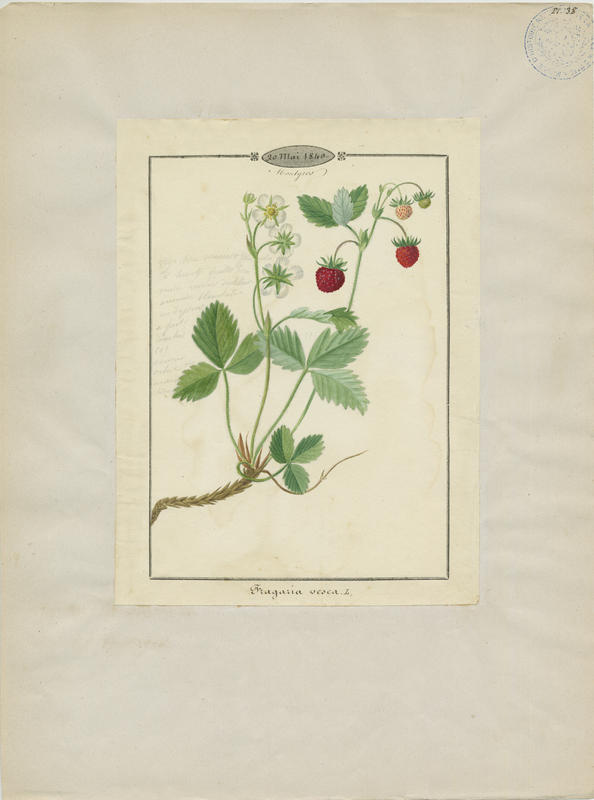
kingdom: Plantae
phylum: Tracheophyta
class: Magnoliopsida
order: Rosales
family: Rosaceae
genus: Fragaria
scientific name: Fragaria vesca
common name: Wild strawberry
